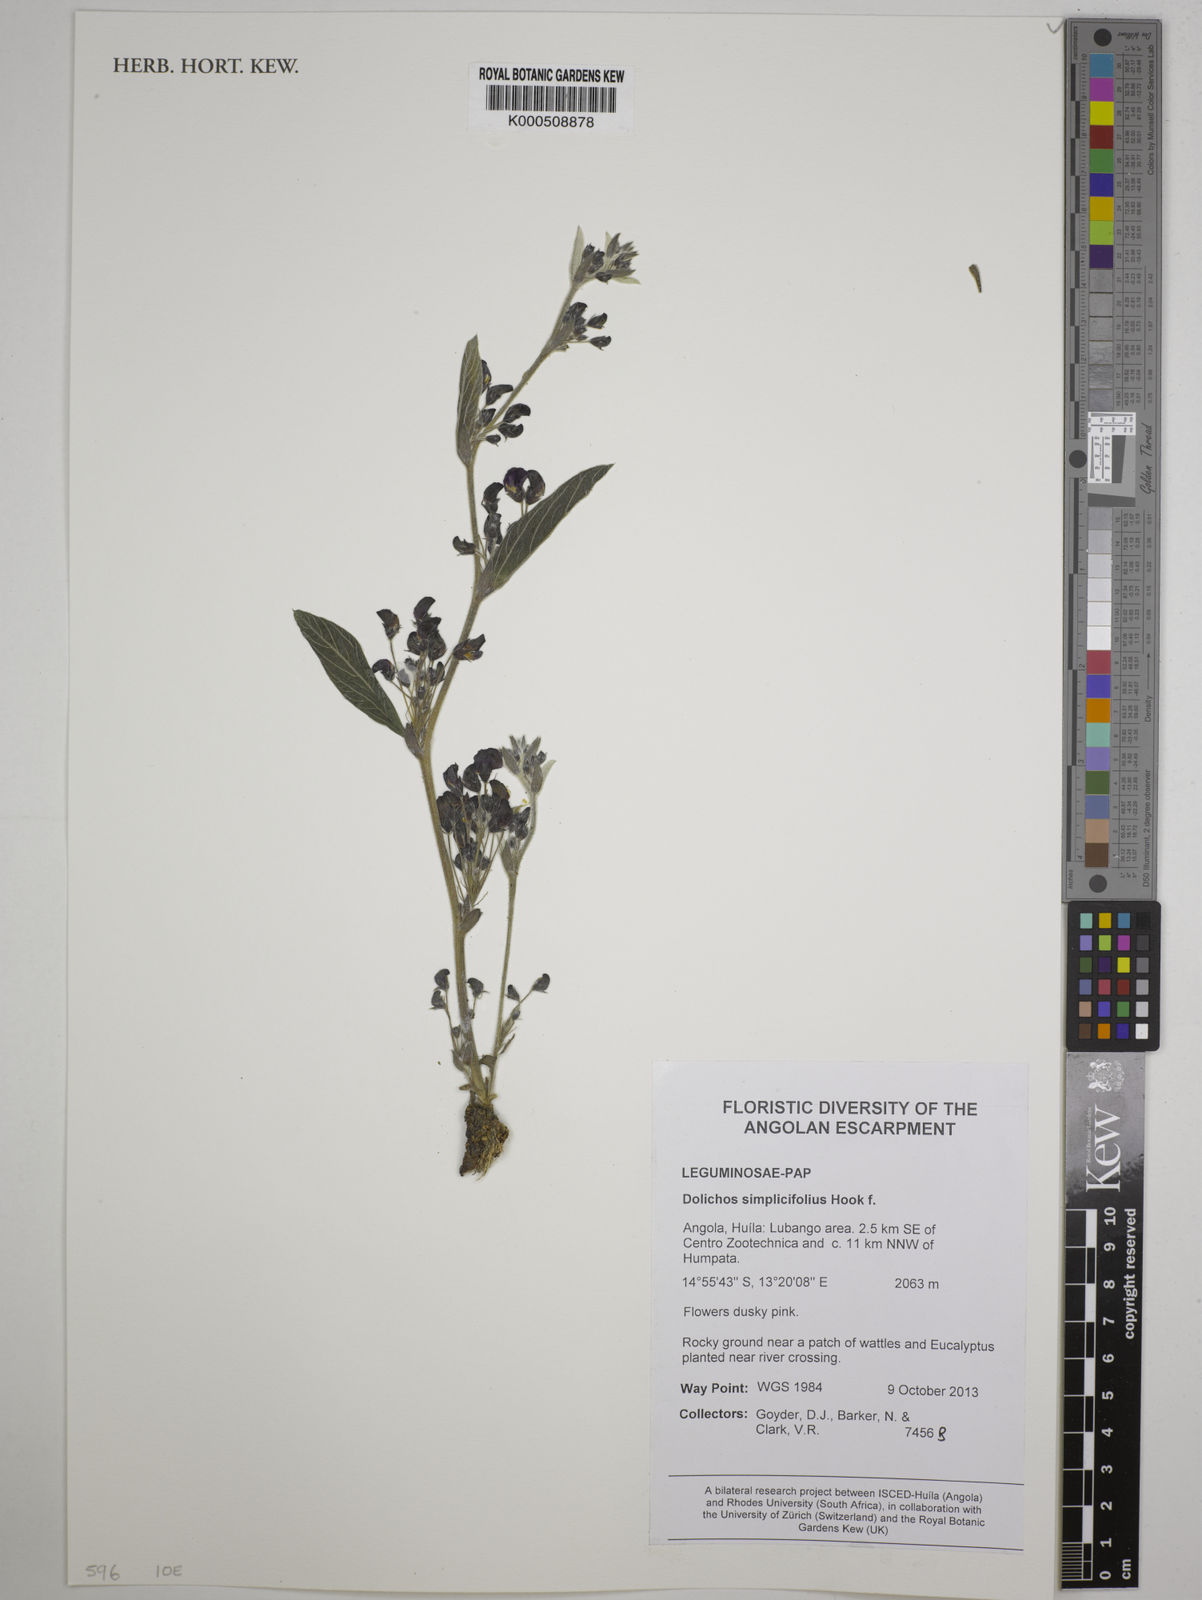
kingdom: Plantae
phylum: Tracheophyta
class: Magnoliopsida
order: Fabales
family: Fabaceae
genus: Dolichos
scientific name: Dolichos simplicifolius
